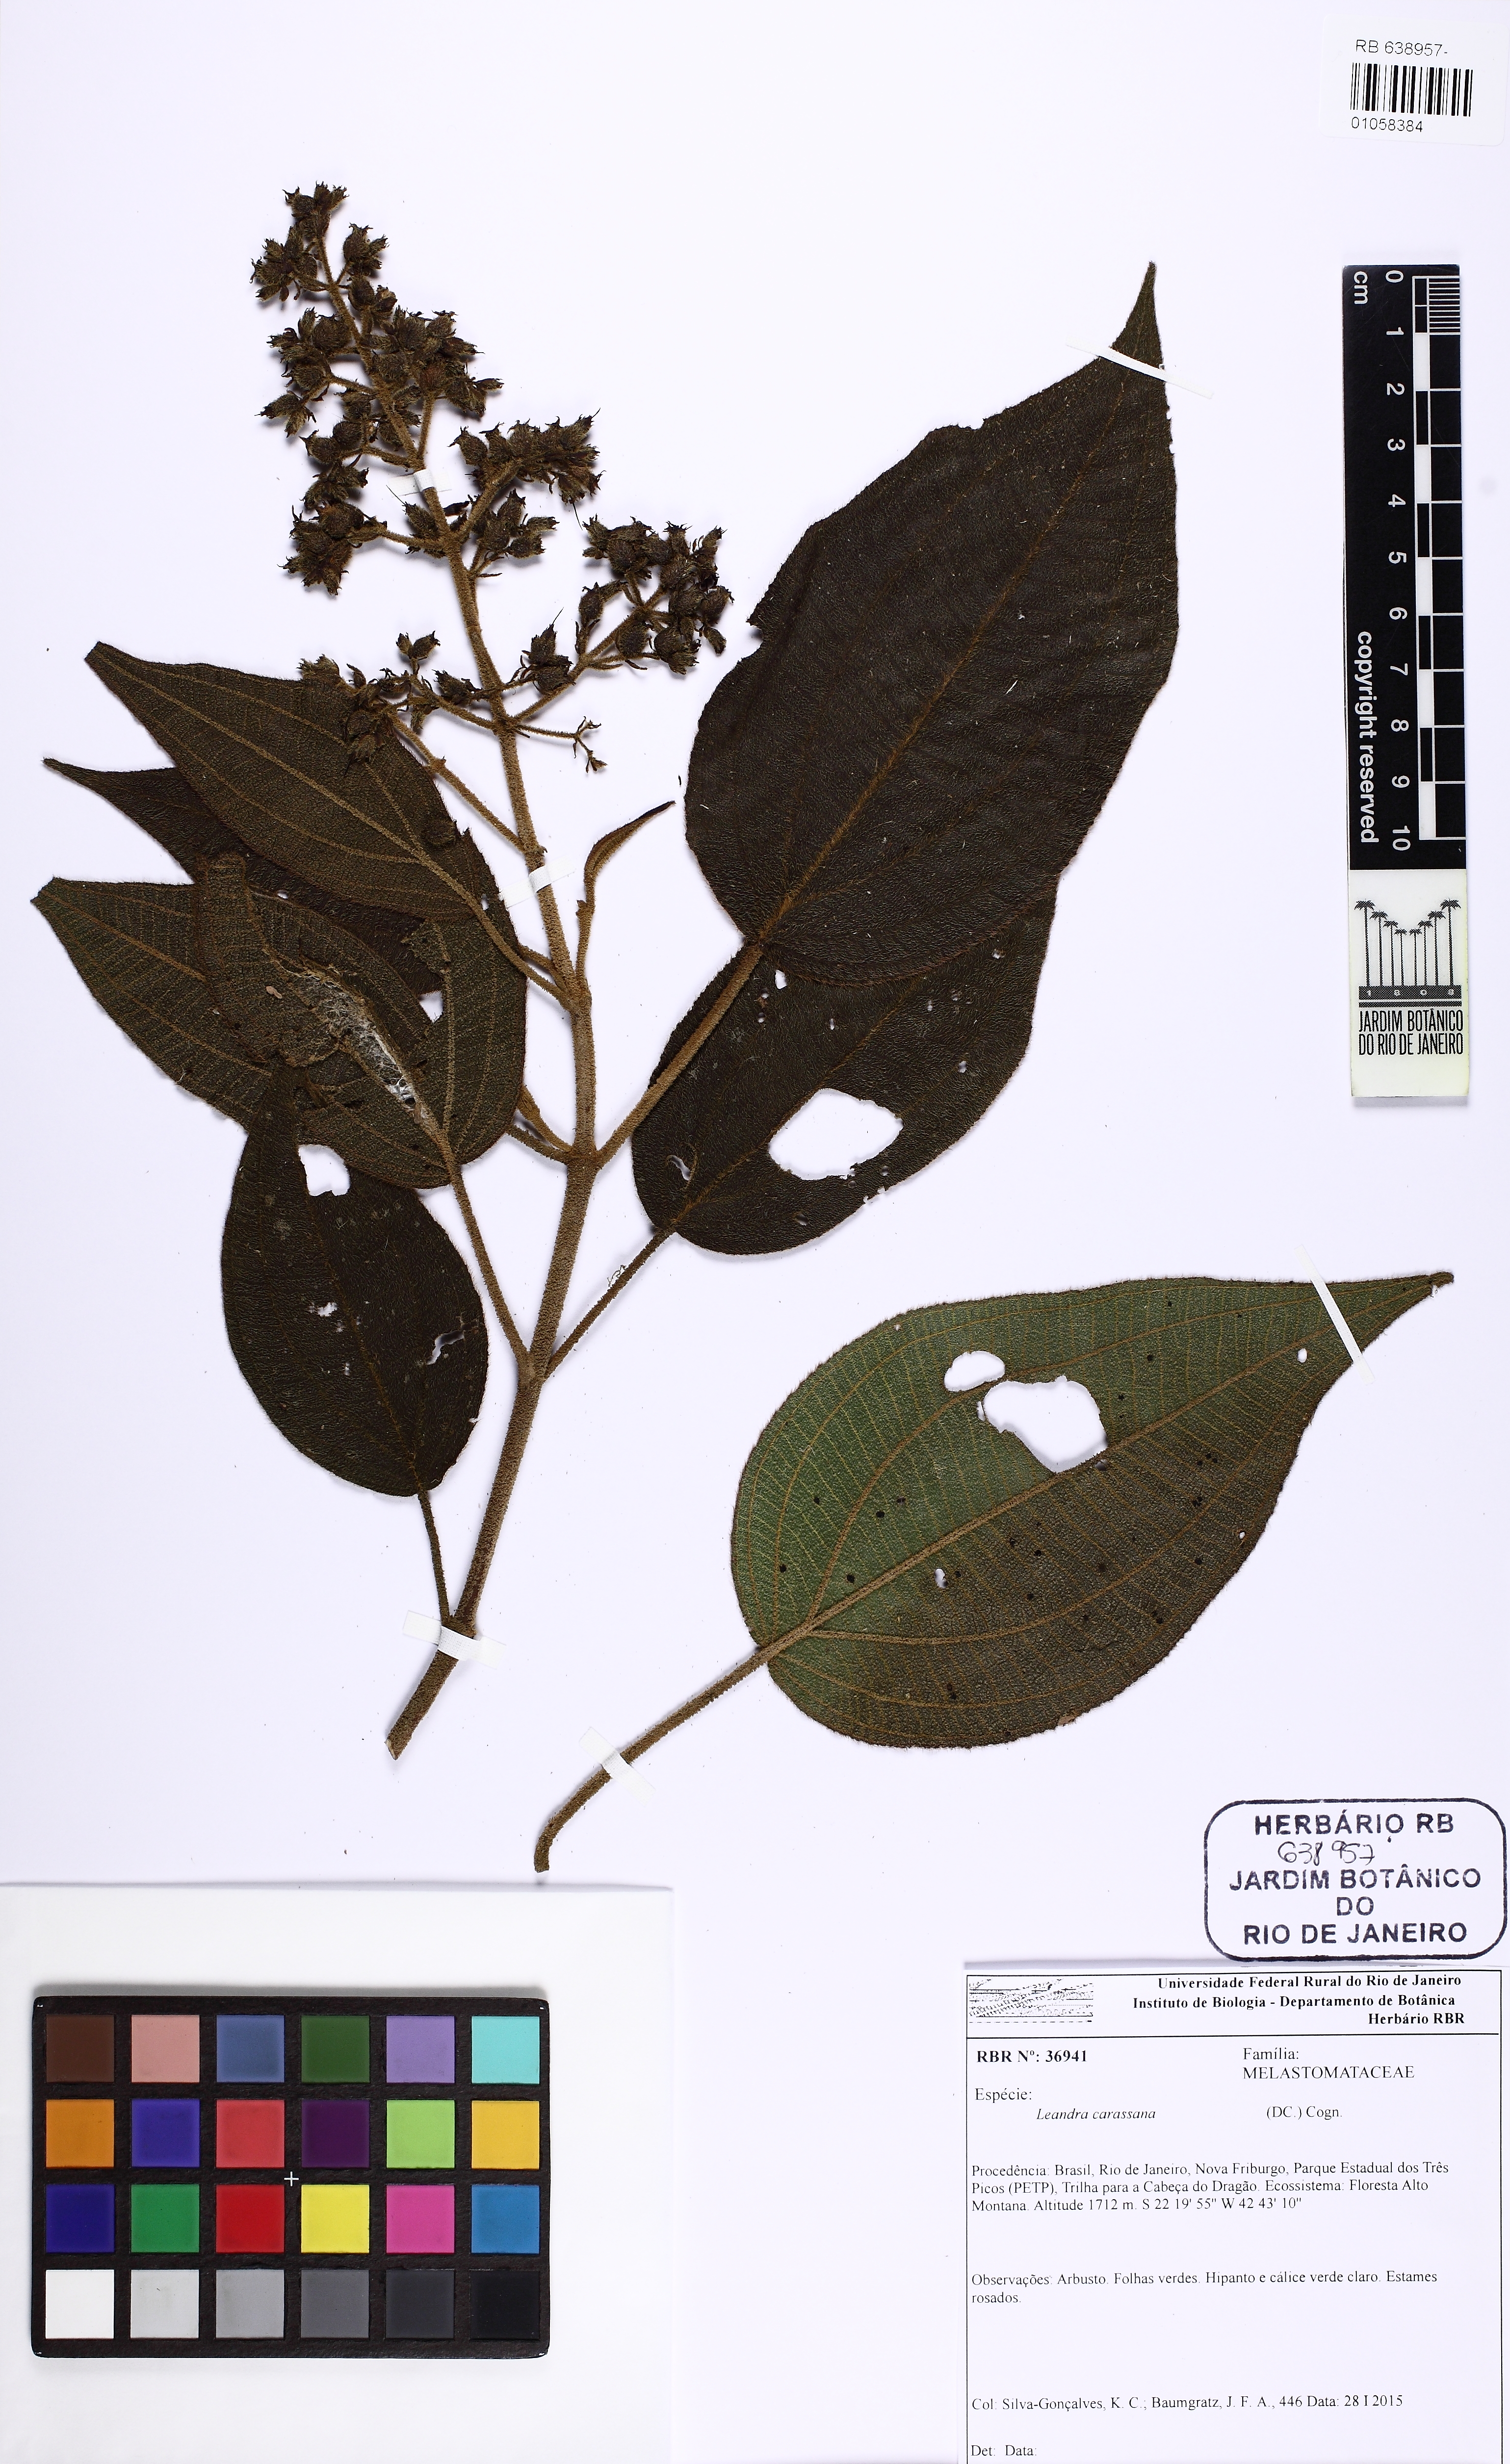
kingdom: Plantae
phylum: Tracheophyta
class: Magnoliopsida
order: Myrtales
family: Melastomataceae
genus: Miconia
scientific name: Miconia sublanata
